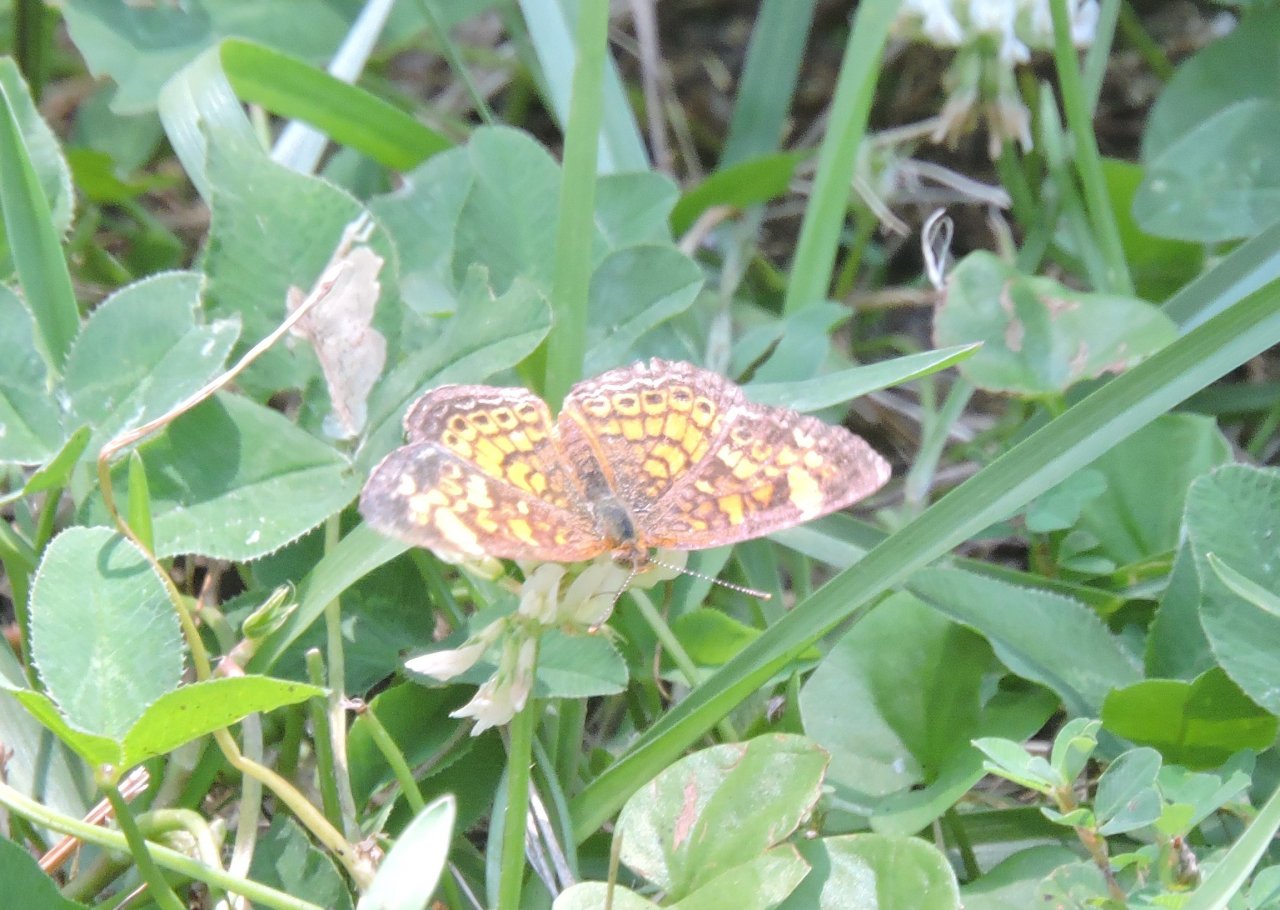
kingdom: Animalia
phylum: Arthropoda
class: Insecta
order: Lepidoptera
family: Nymphalidae
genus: Phyciodes
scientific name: Phyciodes tharos
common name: Pearl Crescent
